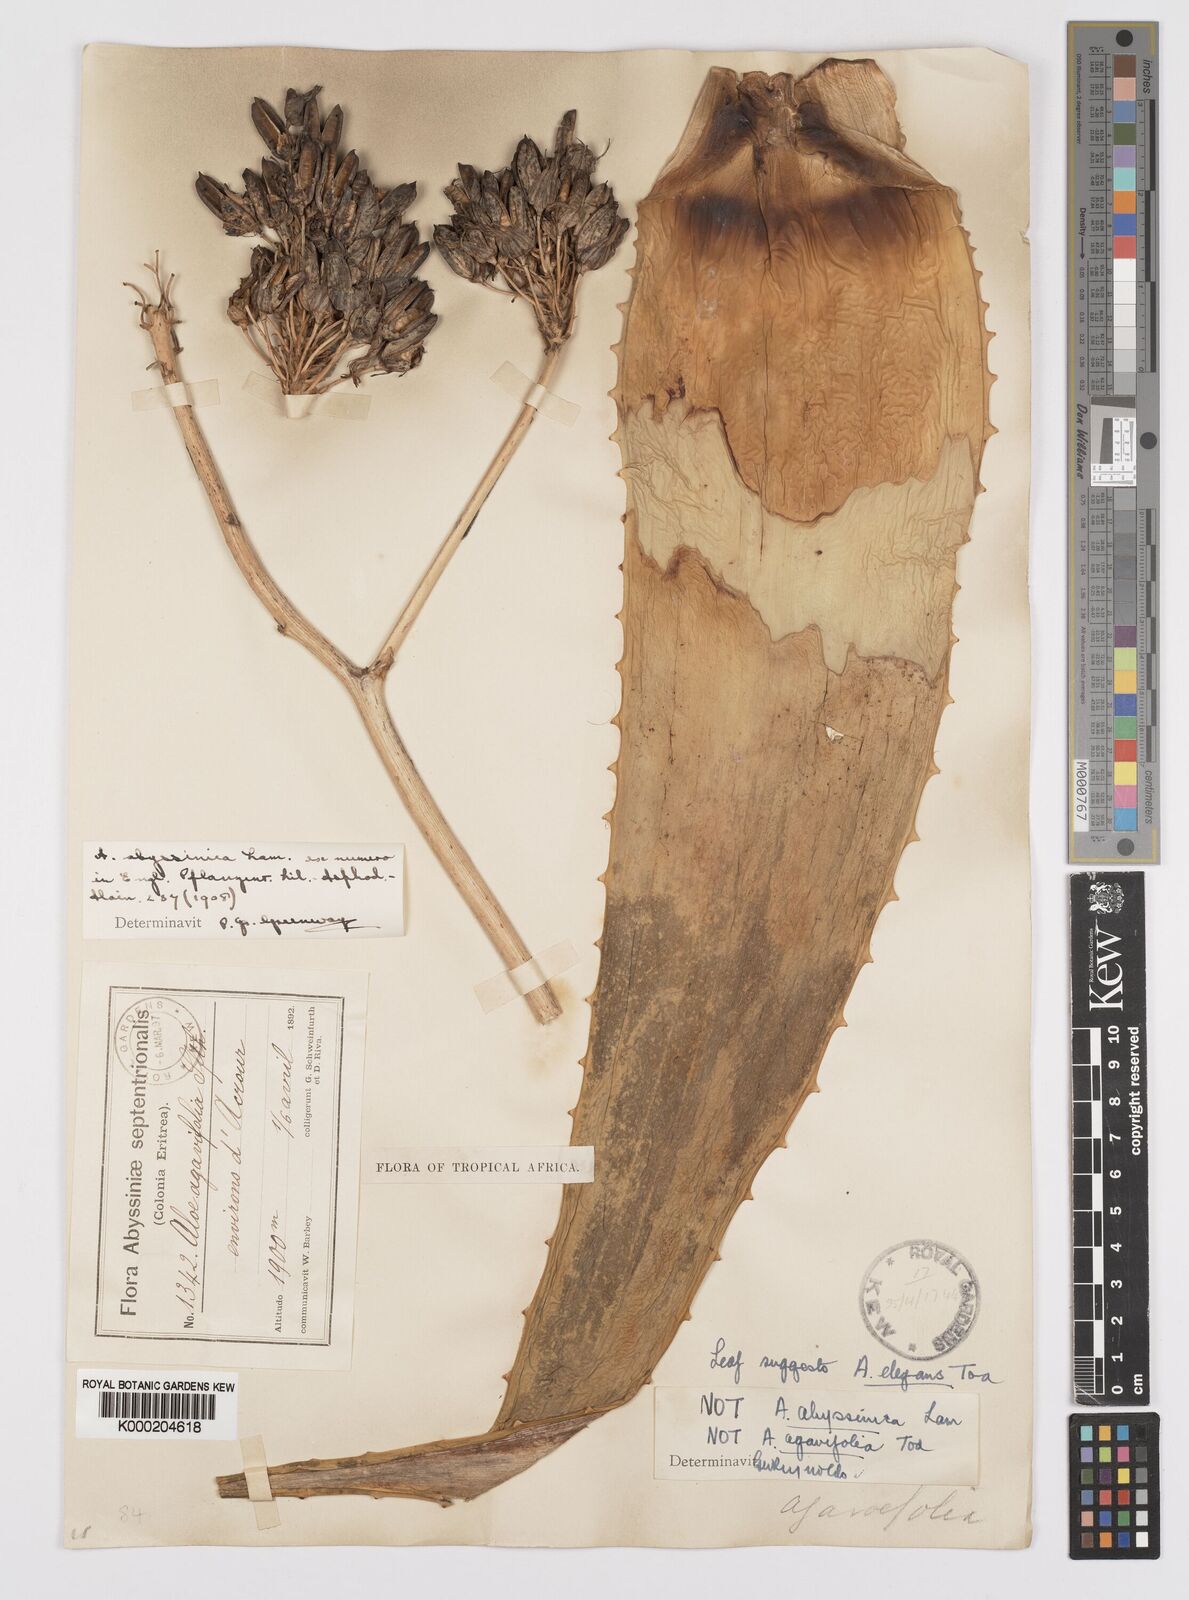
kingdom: Plantae
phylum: Tracheophyta
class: Liliopsida
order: Asparagales
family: Asphodelaceae
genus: Aloe
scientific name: Aloe percrassa
